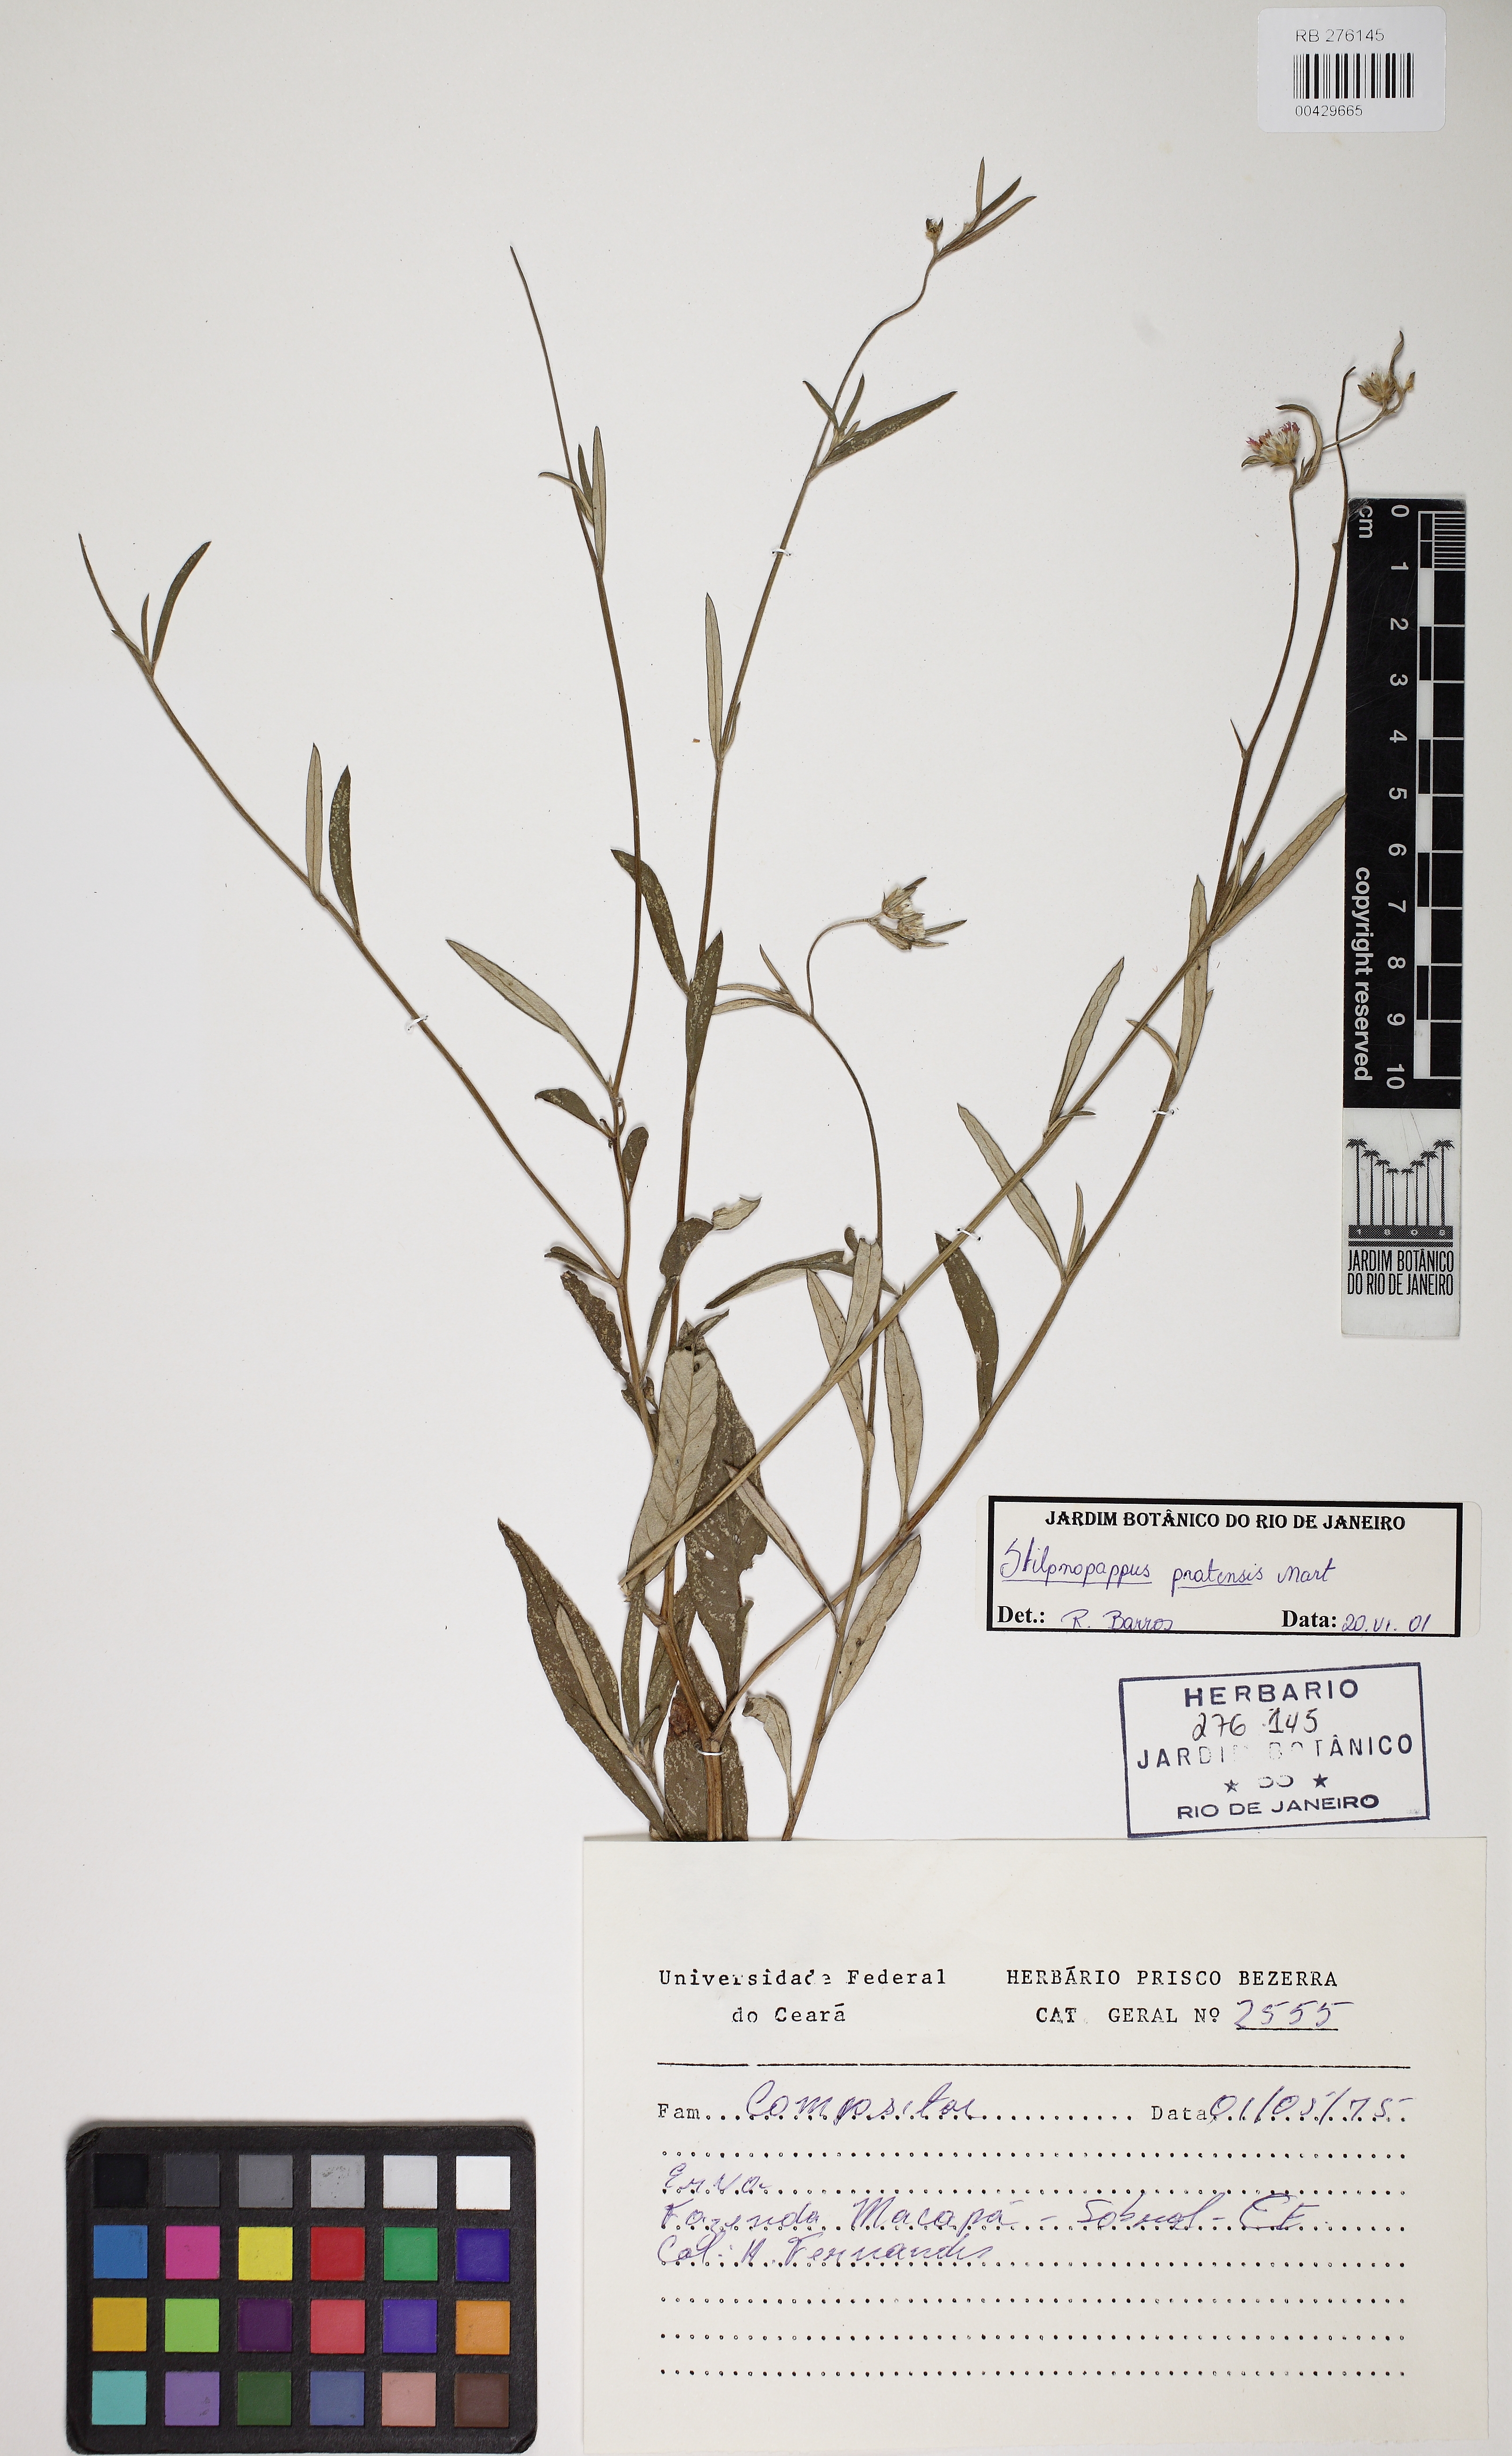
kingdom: Plantae
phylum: Tracheophyta
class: Magnoliopsida
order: Asterales
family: Asteraceae
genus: Stilpnopappus
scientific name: Stilpnopappus pratensis
